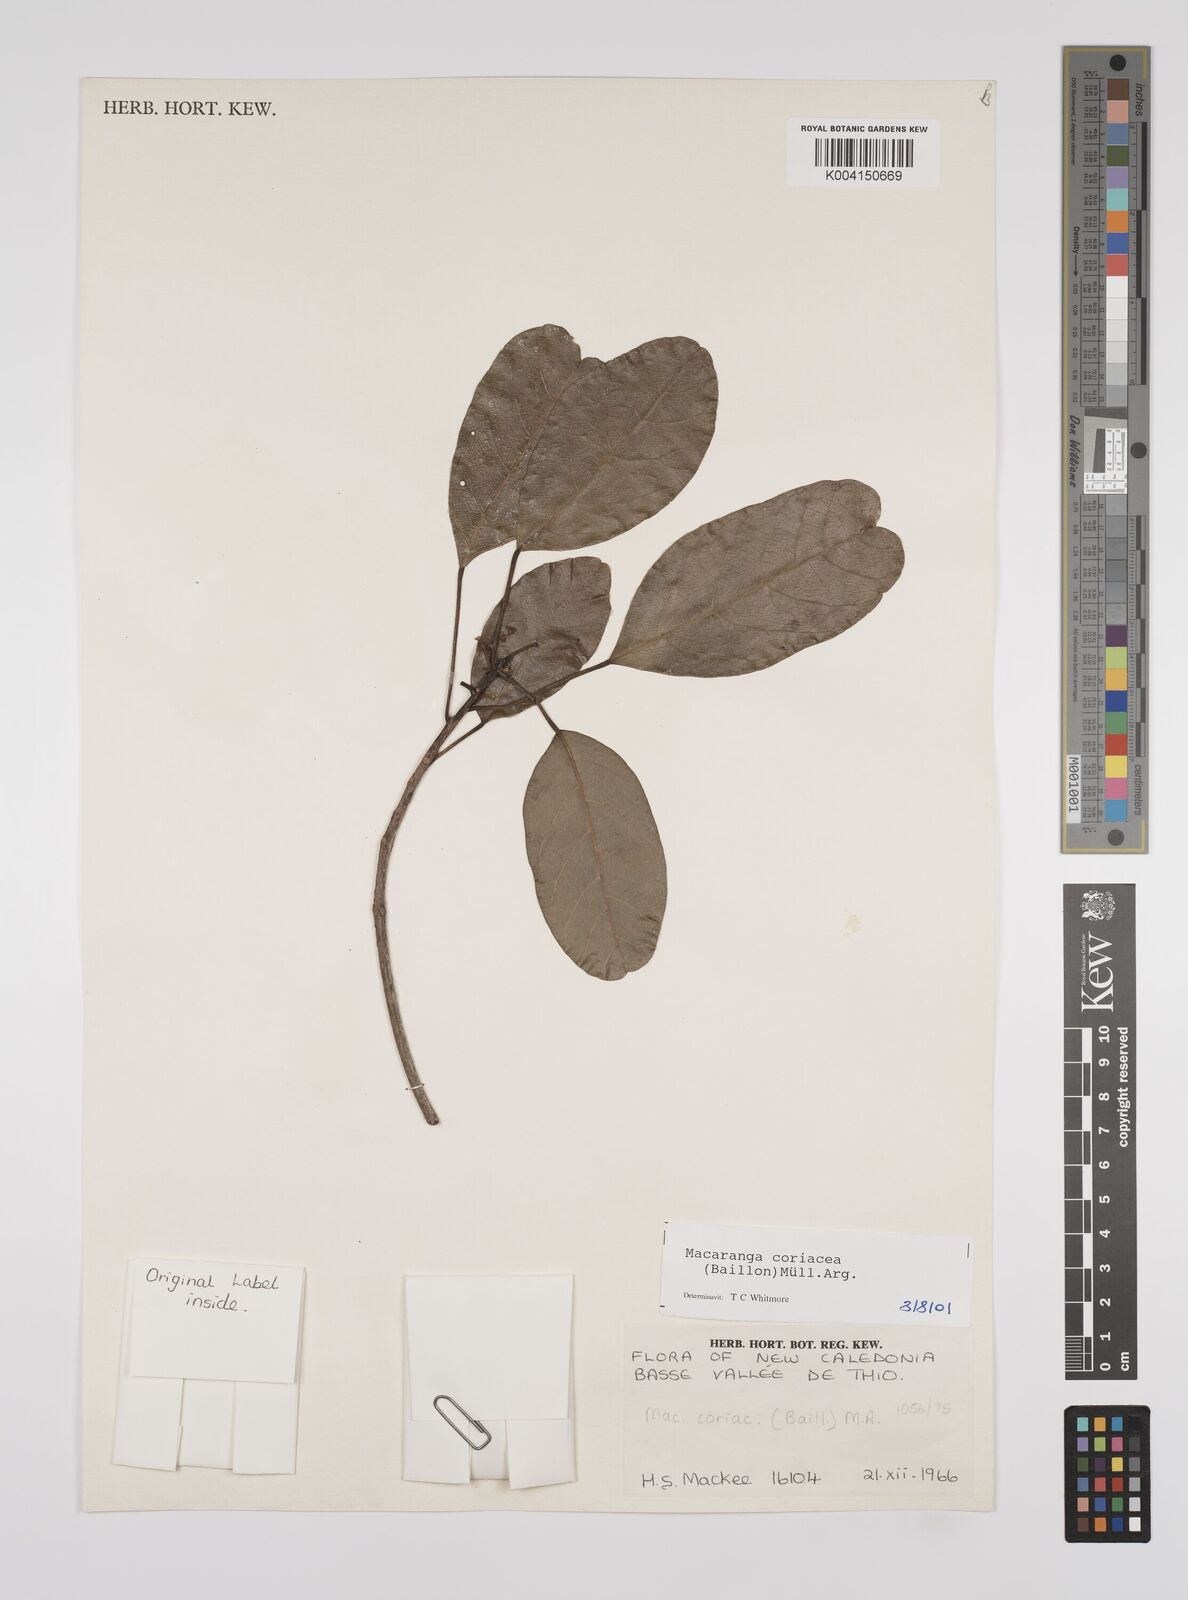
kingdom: Plantae
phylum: Tracheophyta
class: Magnoliopsida
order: Malpighiales
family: Euphorbiaceae
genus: Macaranga
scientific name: Macaranga coriacea
